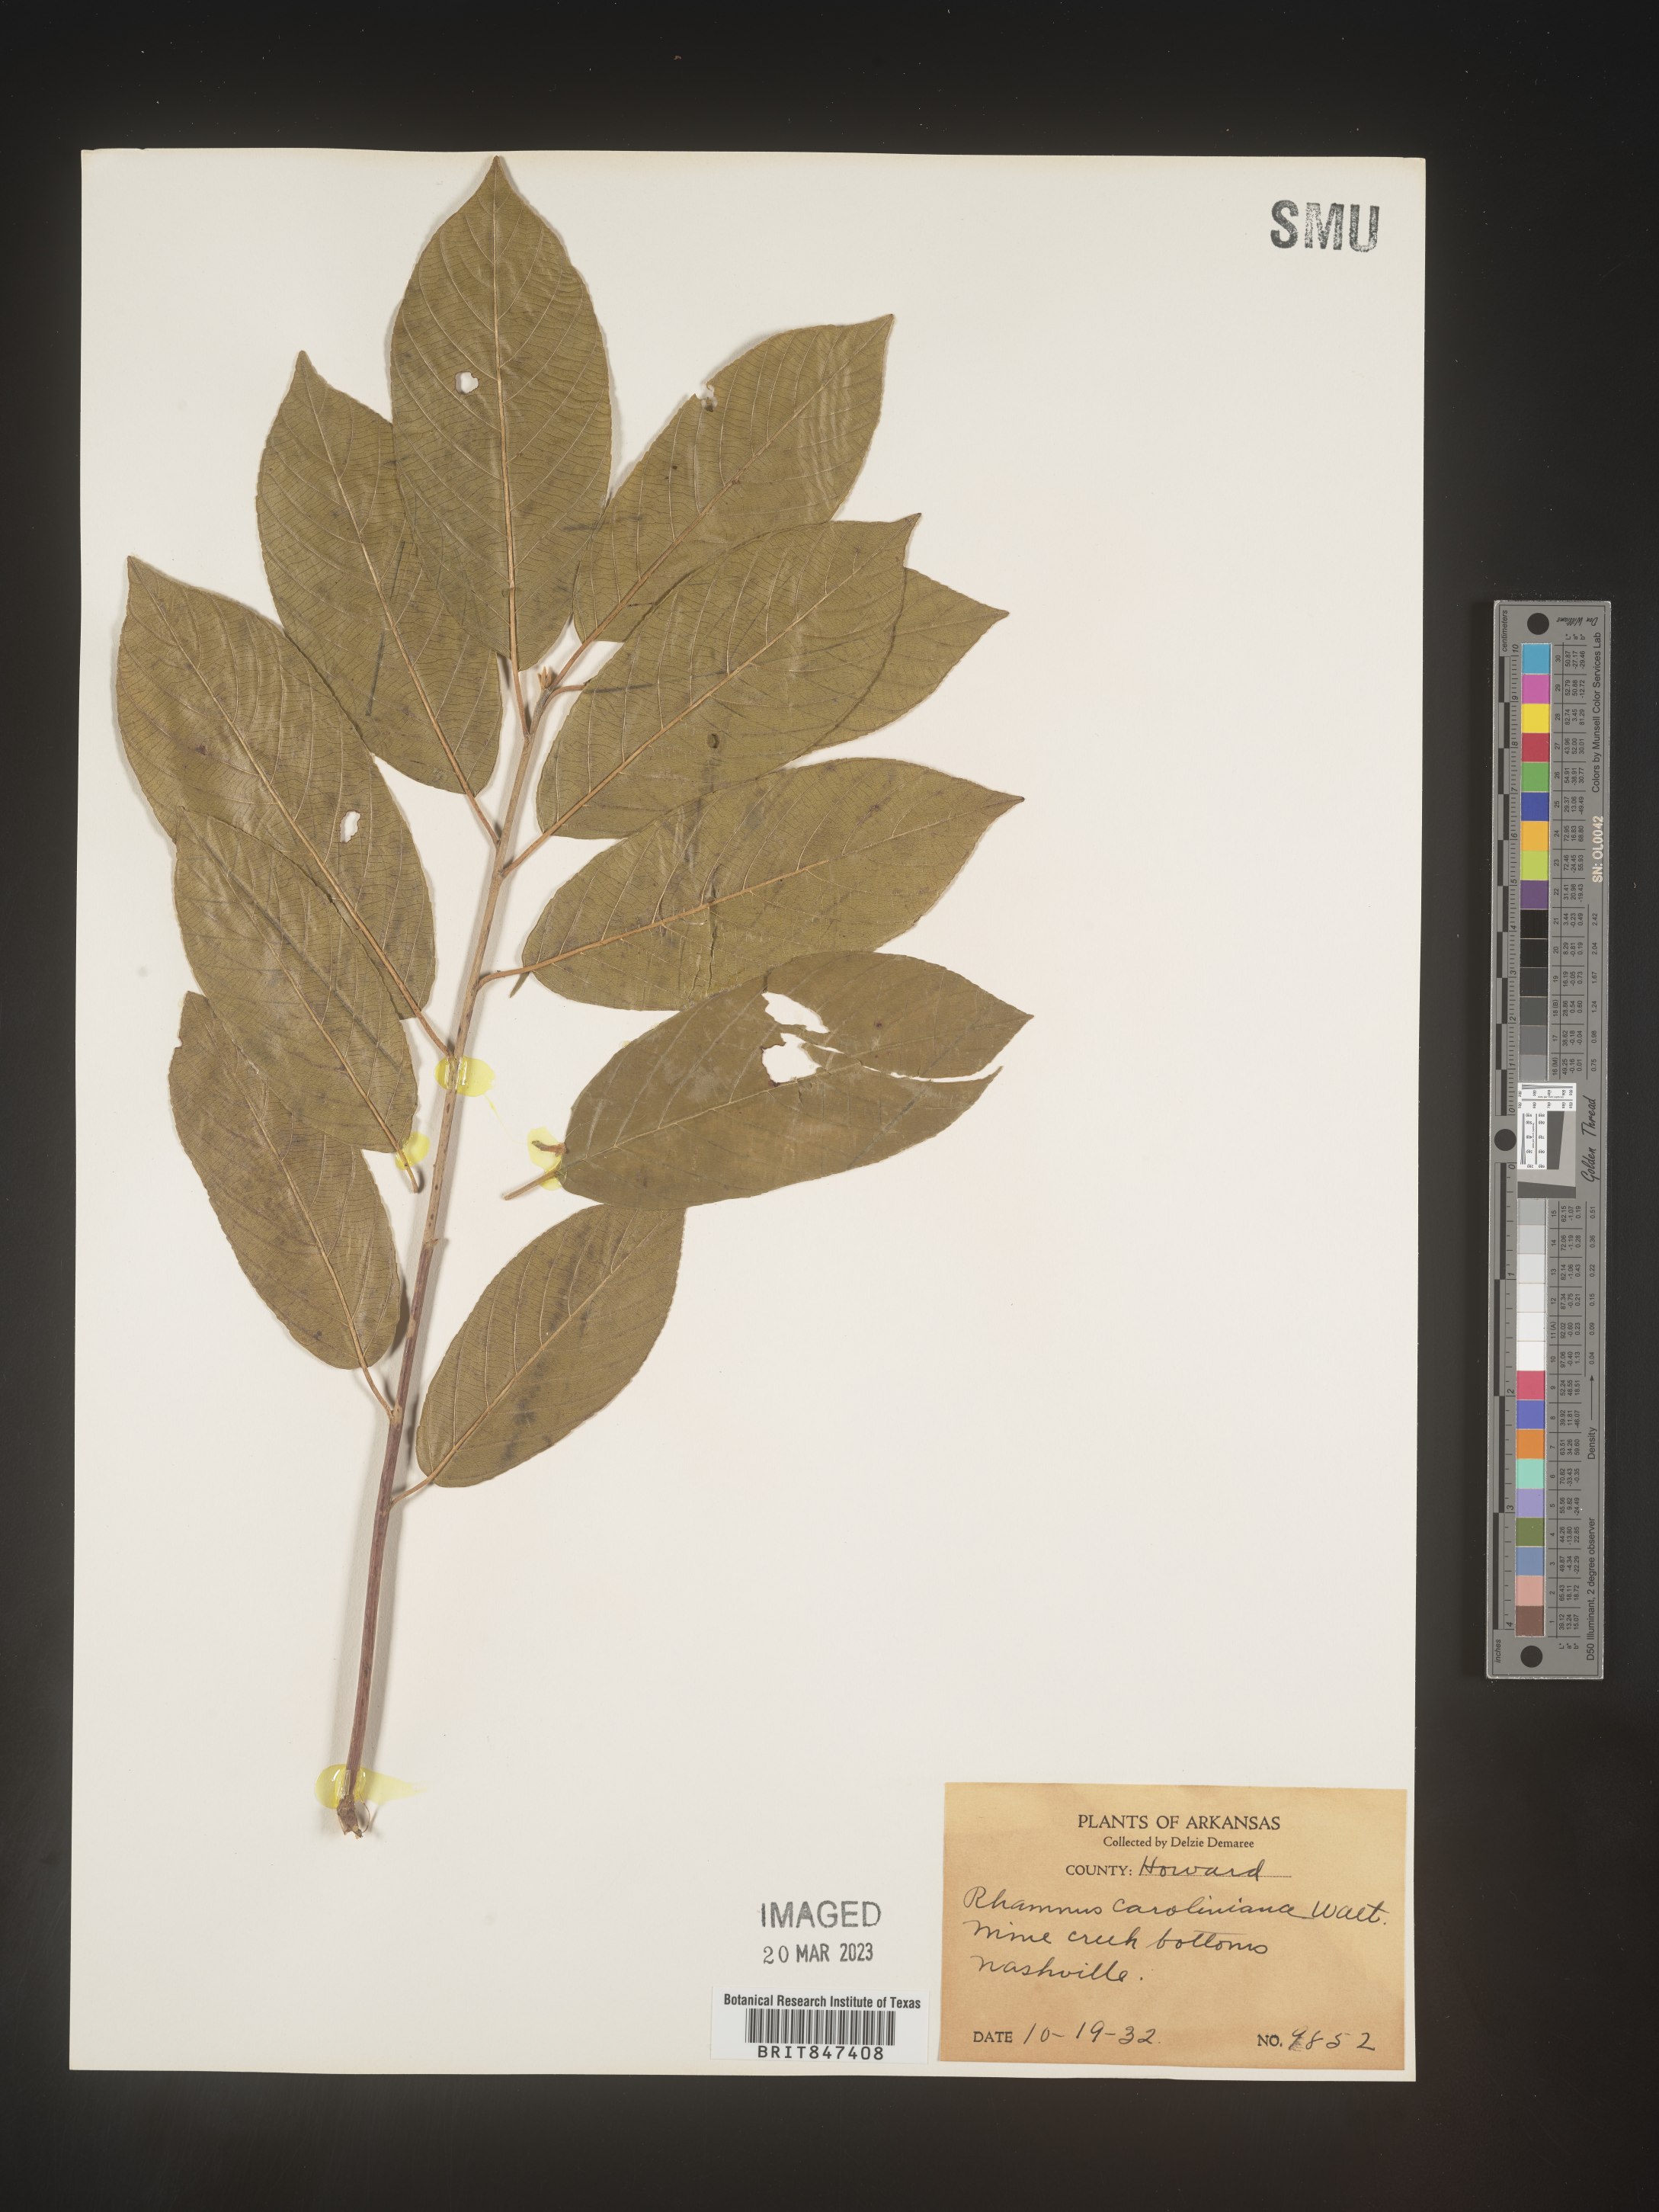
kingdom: Plantae
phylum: Tracheophyta
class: Magnoliopsida
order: Rosales
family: Rhamnaceae
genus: Frangula
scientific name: Frangula caroliniana
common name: Carolina buckthorn
